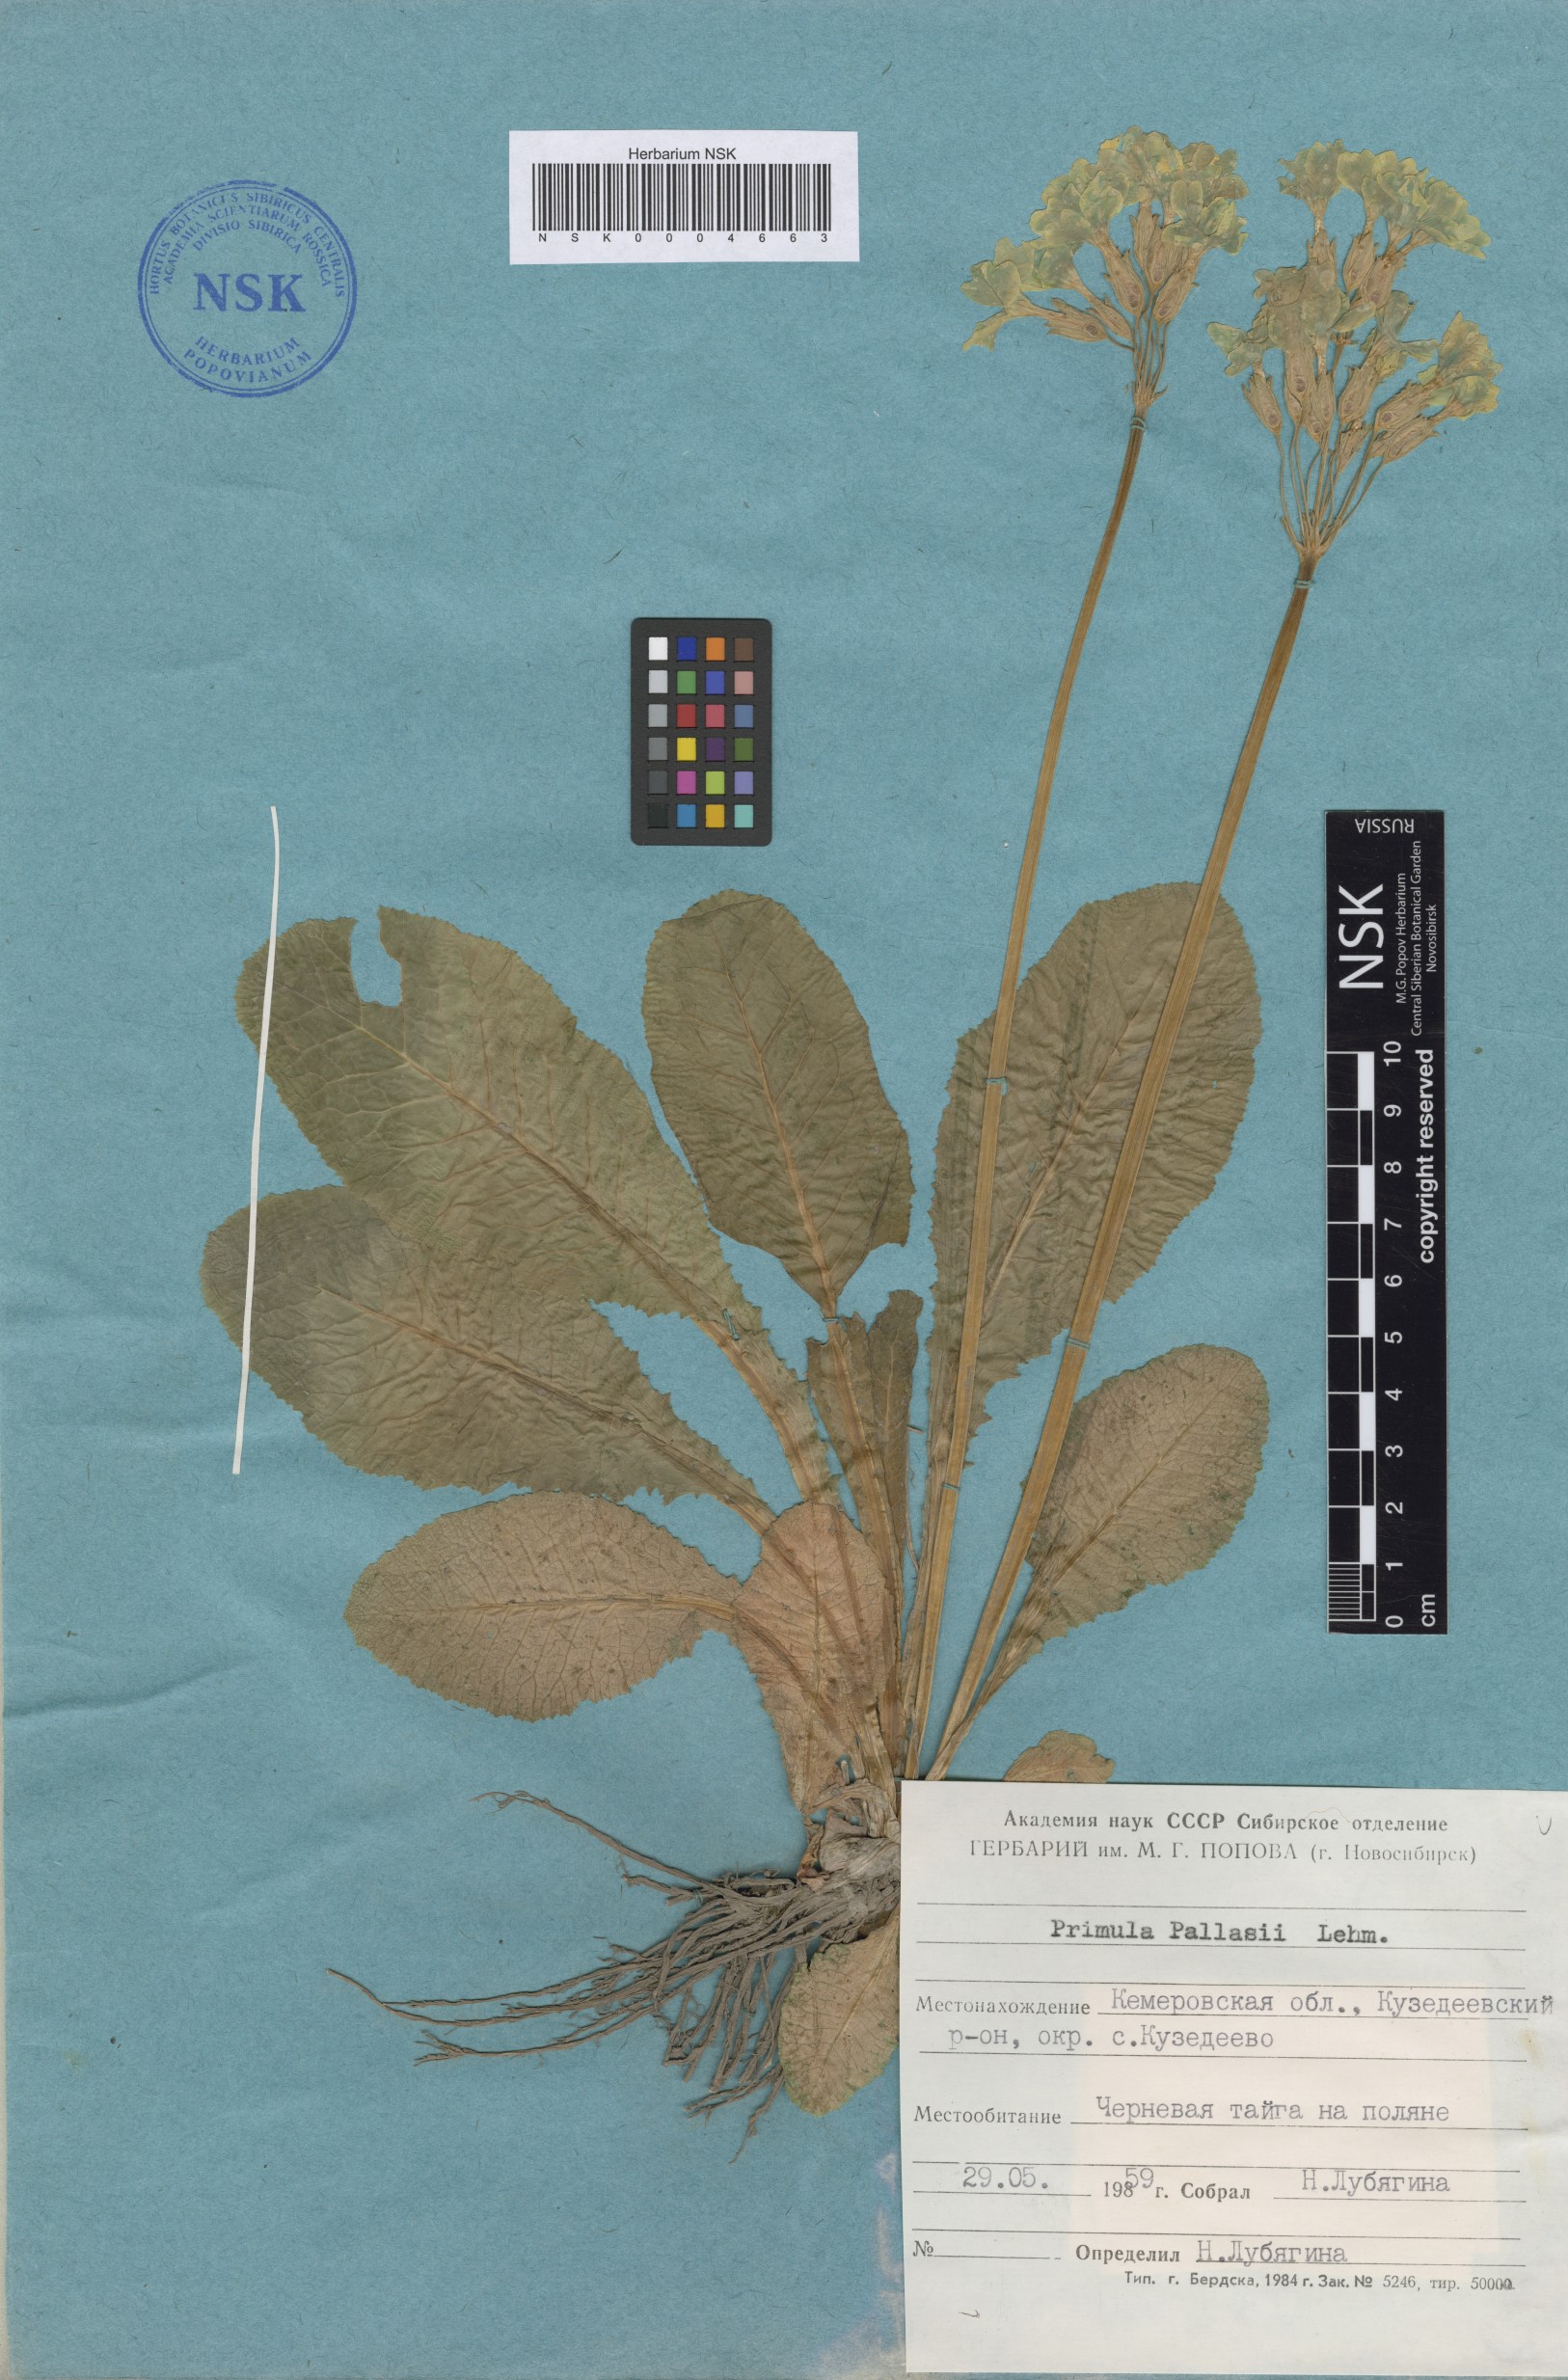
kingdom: Plantae
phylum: Tracheophyta
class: Magnoliopsida
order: Ericales
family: Primulaceae
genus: Primula
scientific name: Primula elatior
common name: Oxlip
